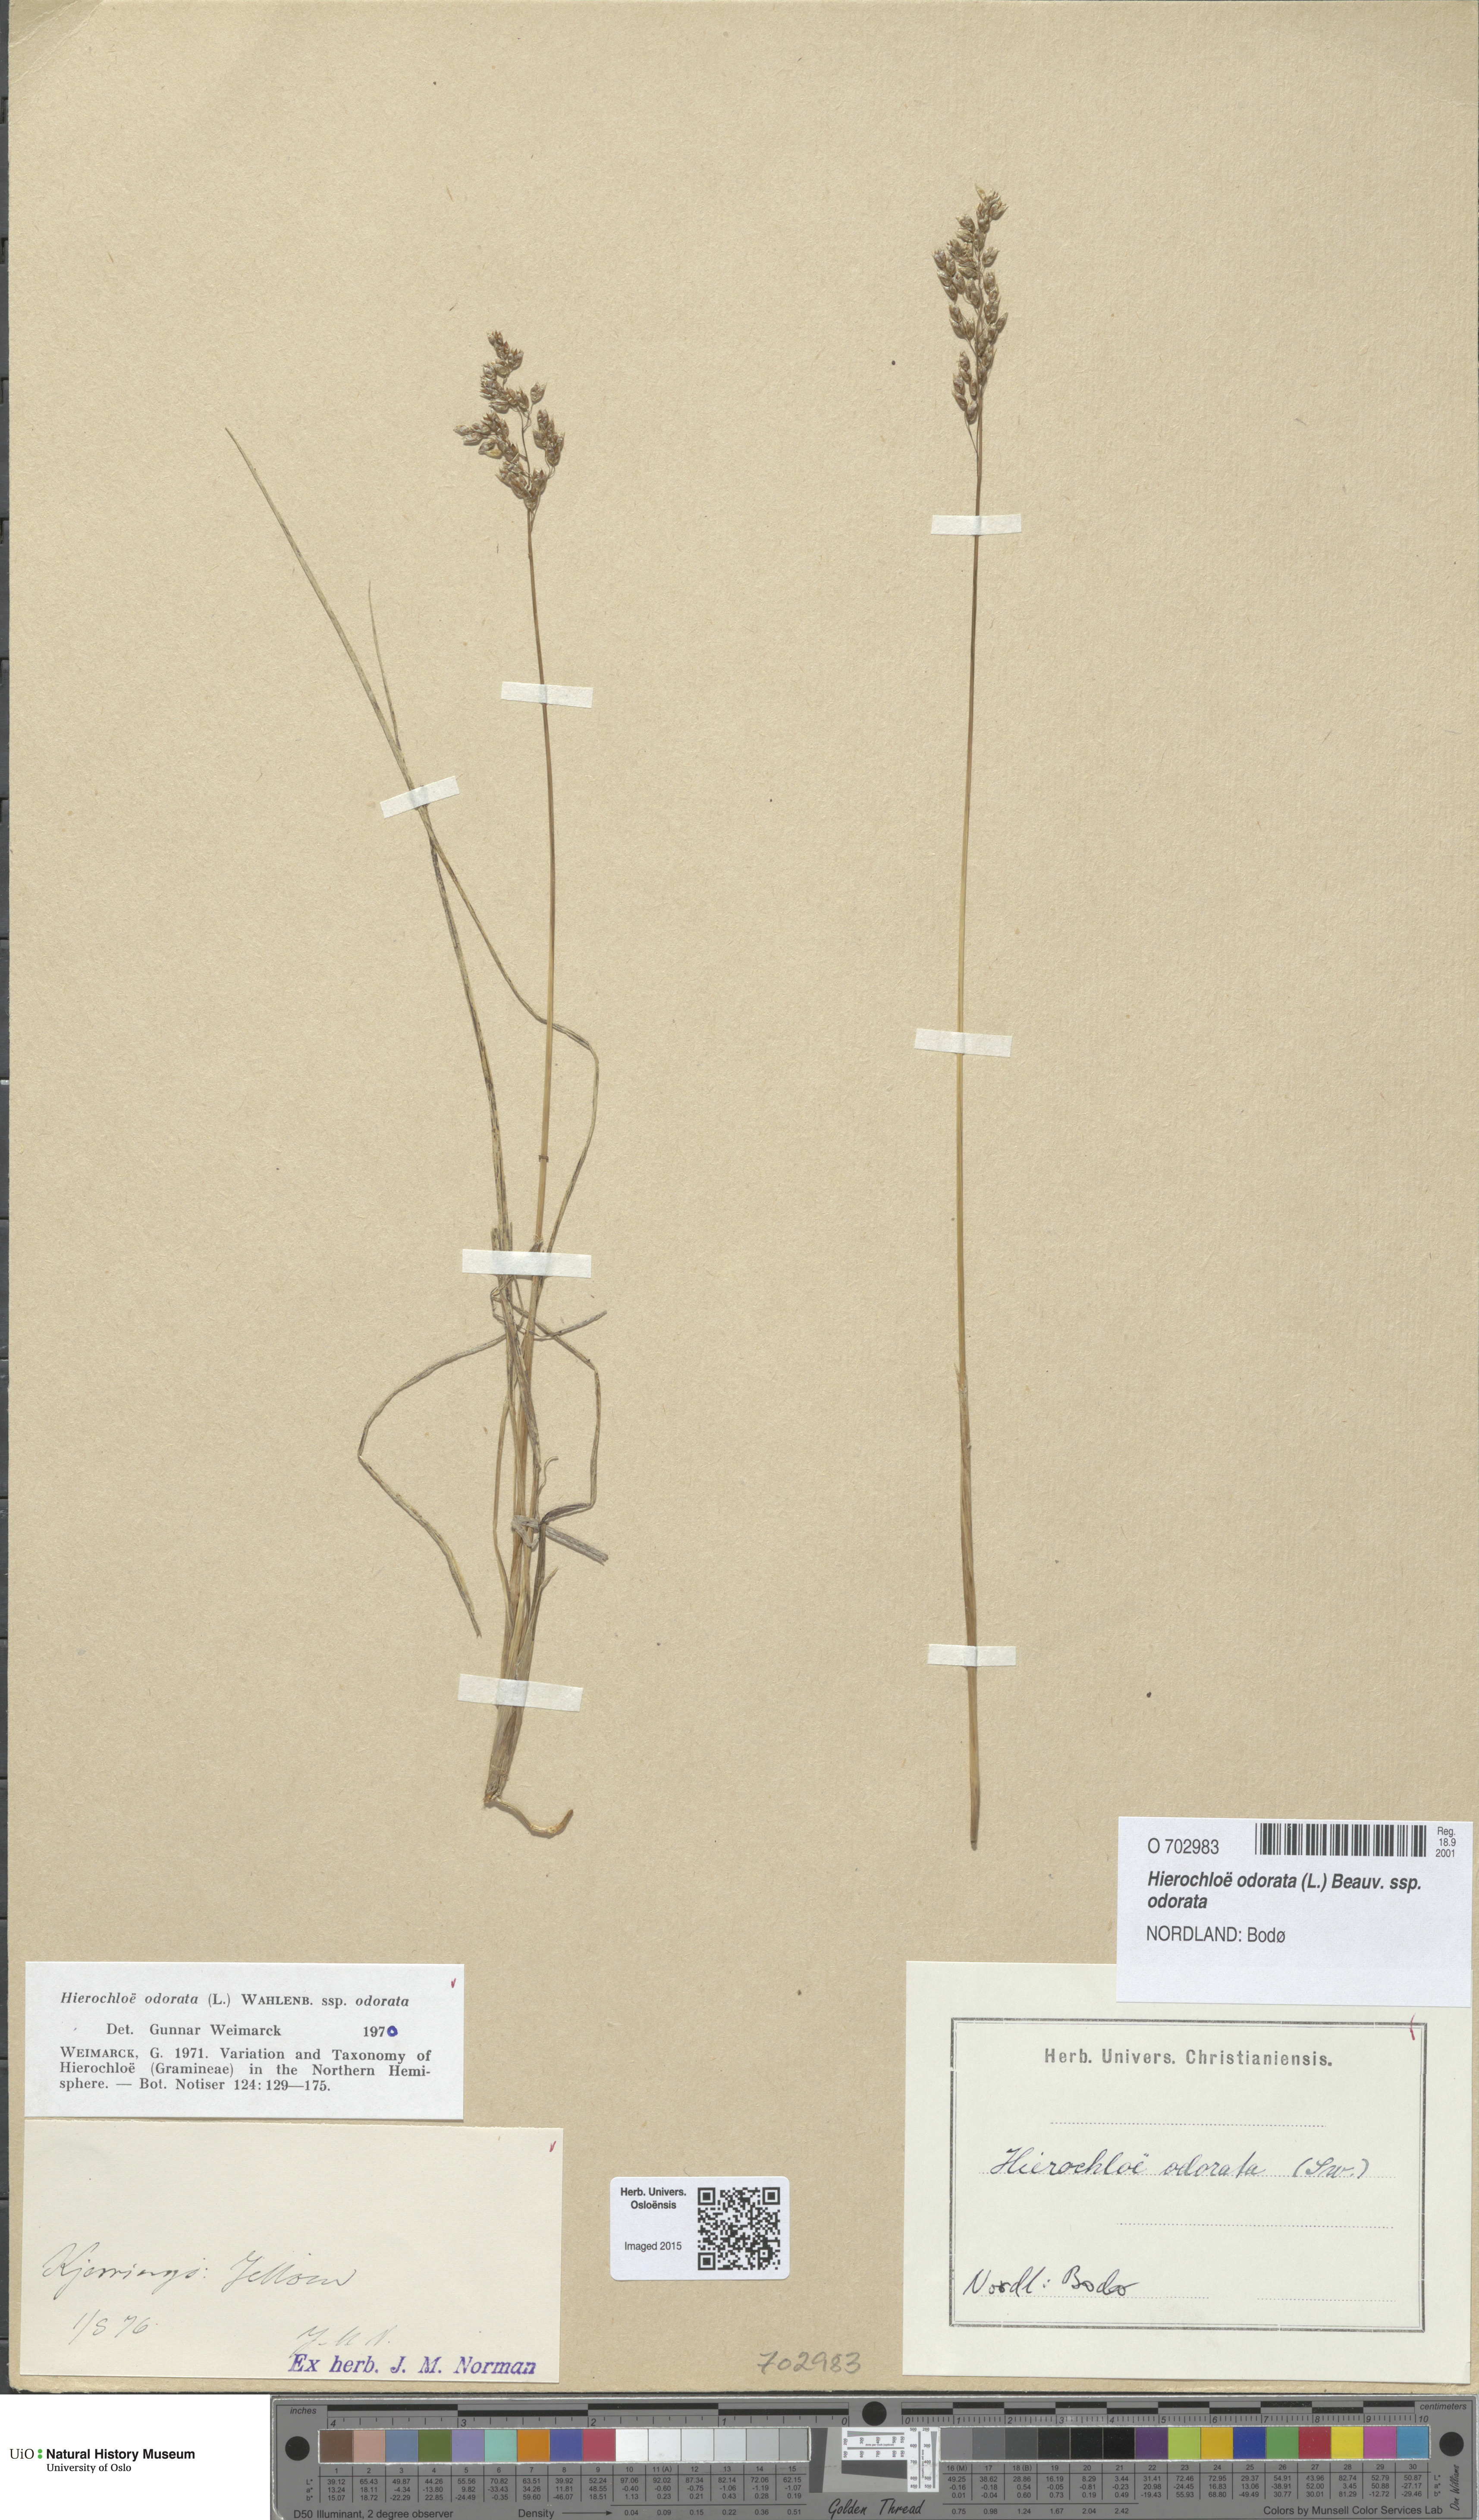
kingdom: Plantae
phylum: Tracheophyta
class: Liliopsida
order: Poales
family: Poaceae
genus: Anthoxanthum
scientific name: Anthoxanthum nitens
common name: Holy grass
